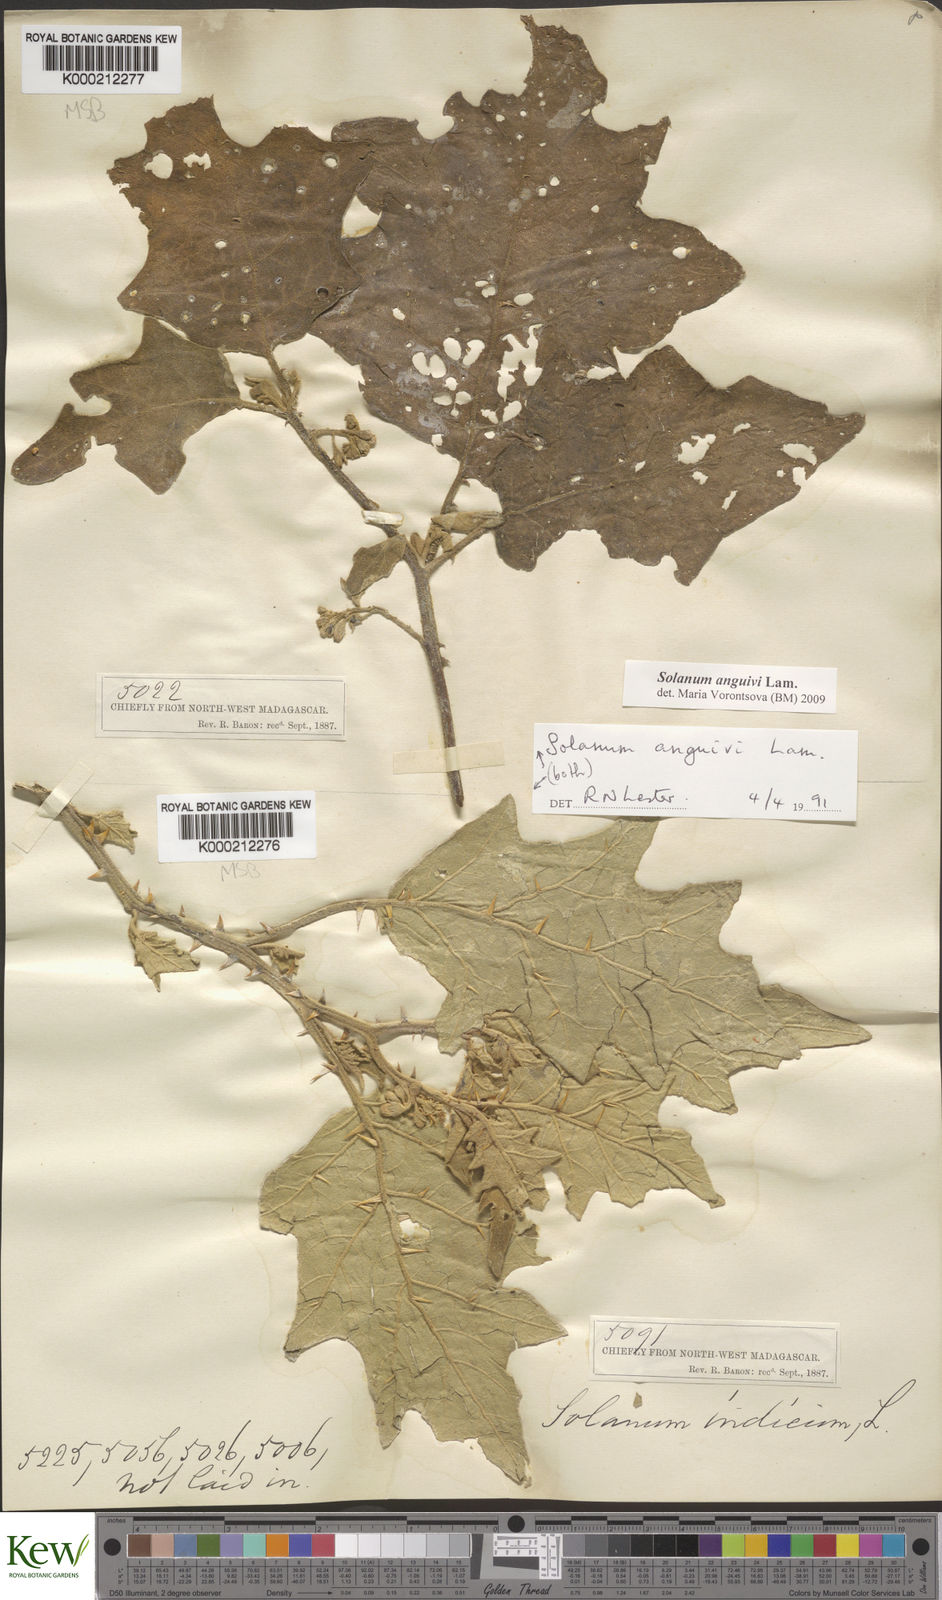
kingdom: Plantae
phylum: Tracheophyta
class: Magnoliopsida
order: Solanales
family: Solanaceae
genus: Solanum
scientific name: Solanum anguivi
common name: Forest bitterberry
